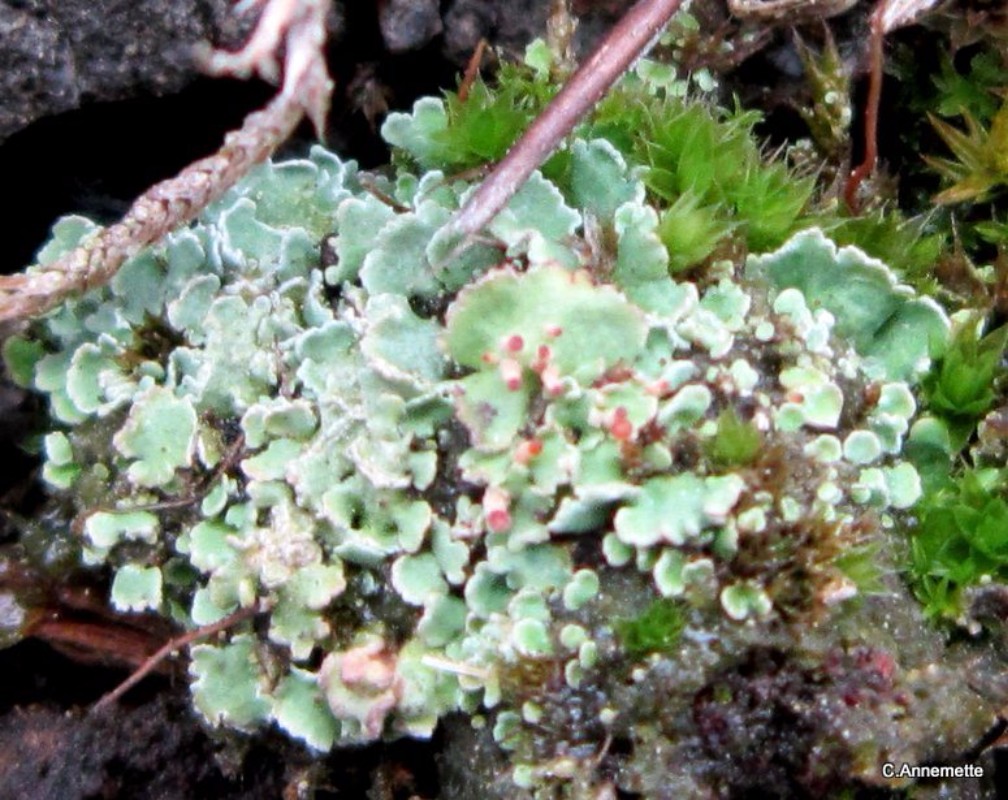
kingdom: Fungi
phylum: Ascomycota
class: Lecanoromycetes
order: Lecanorales
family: Cladoniaceae
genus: Cladonia
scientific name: Cladonia digitata
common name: finger-bægerlav
